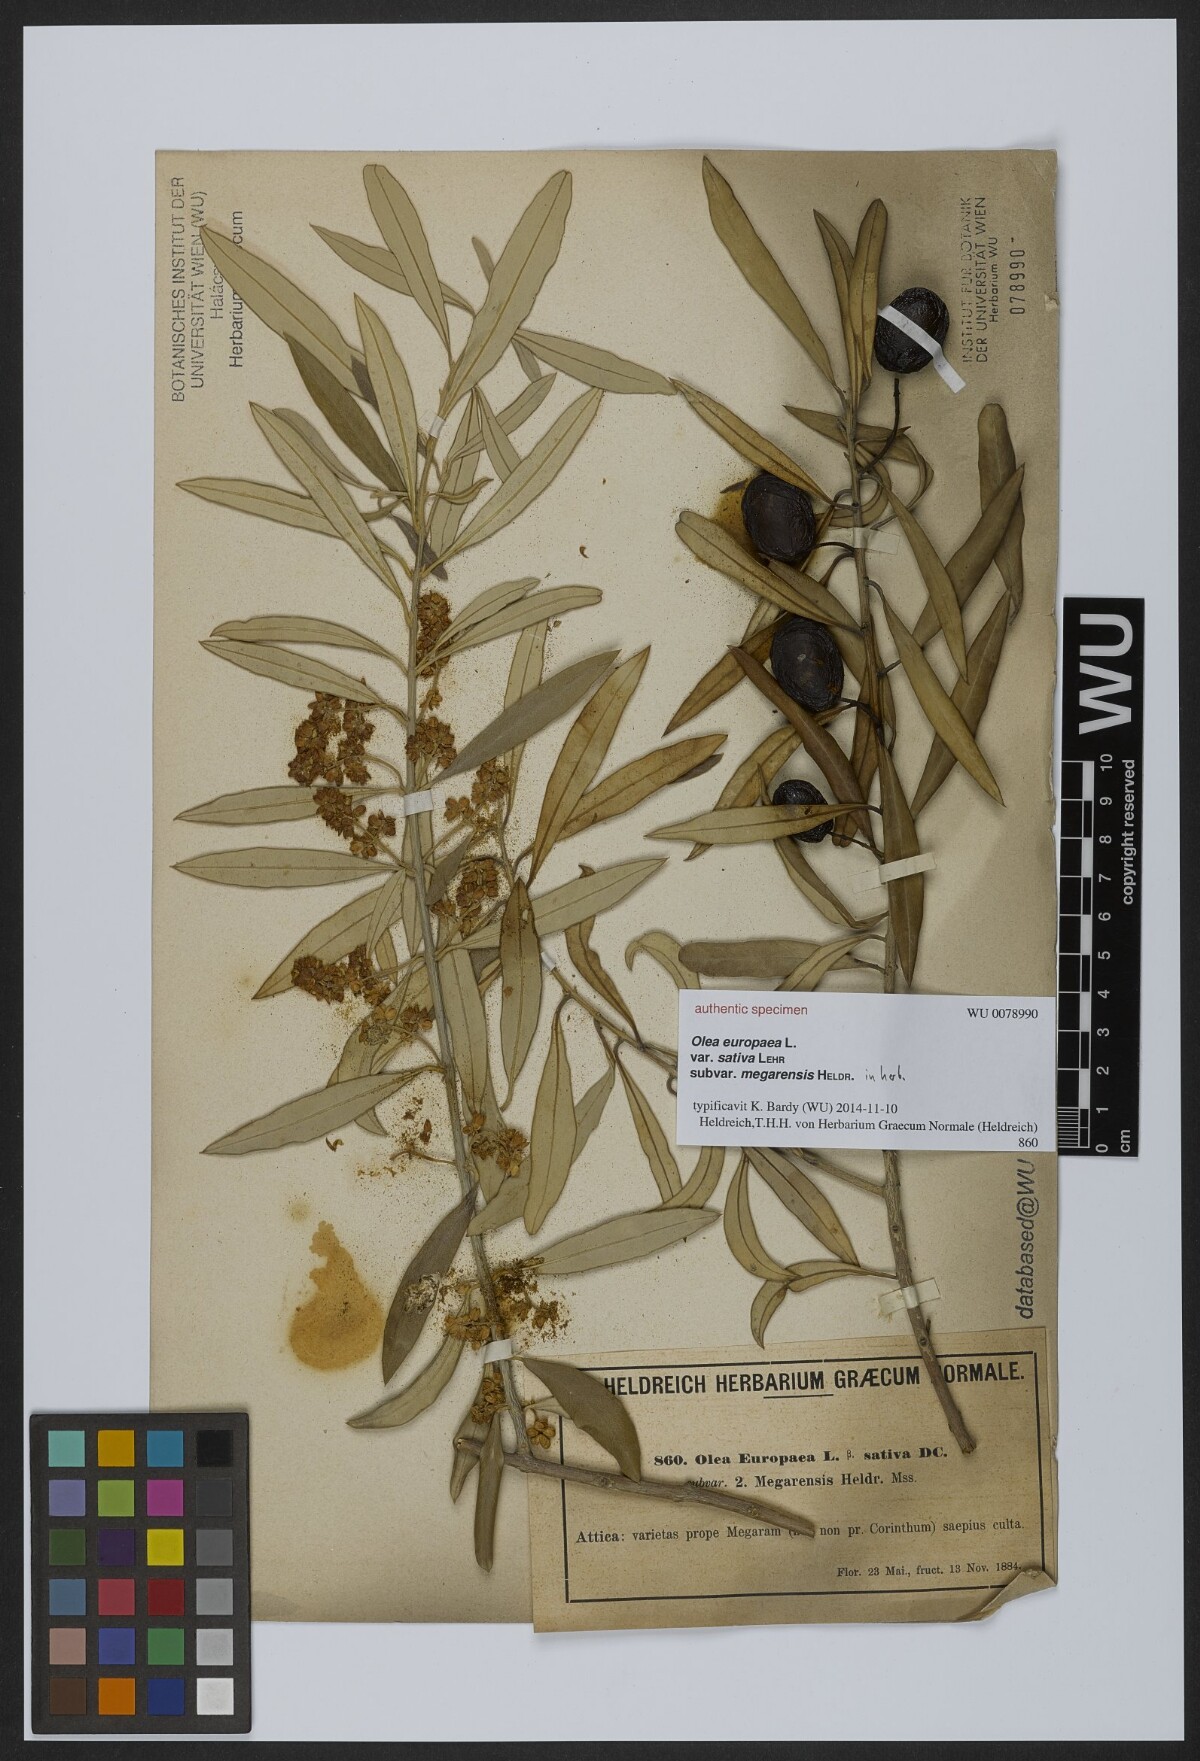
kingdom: Plantae
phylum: Tracheophyta
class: Magnoliopsida
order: Lamiales
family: Oleaceae
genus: Olea
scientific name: Olea europaea
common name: Olive
